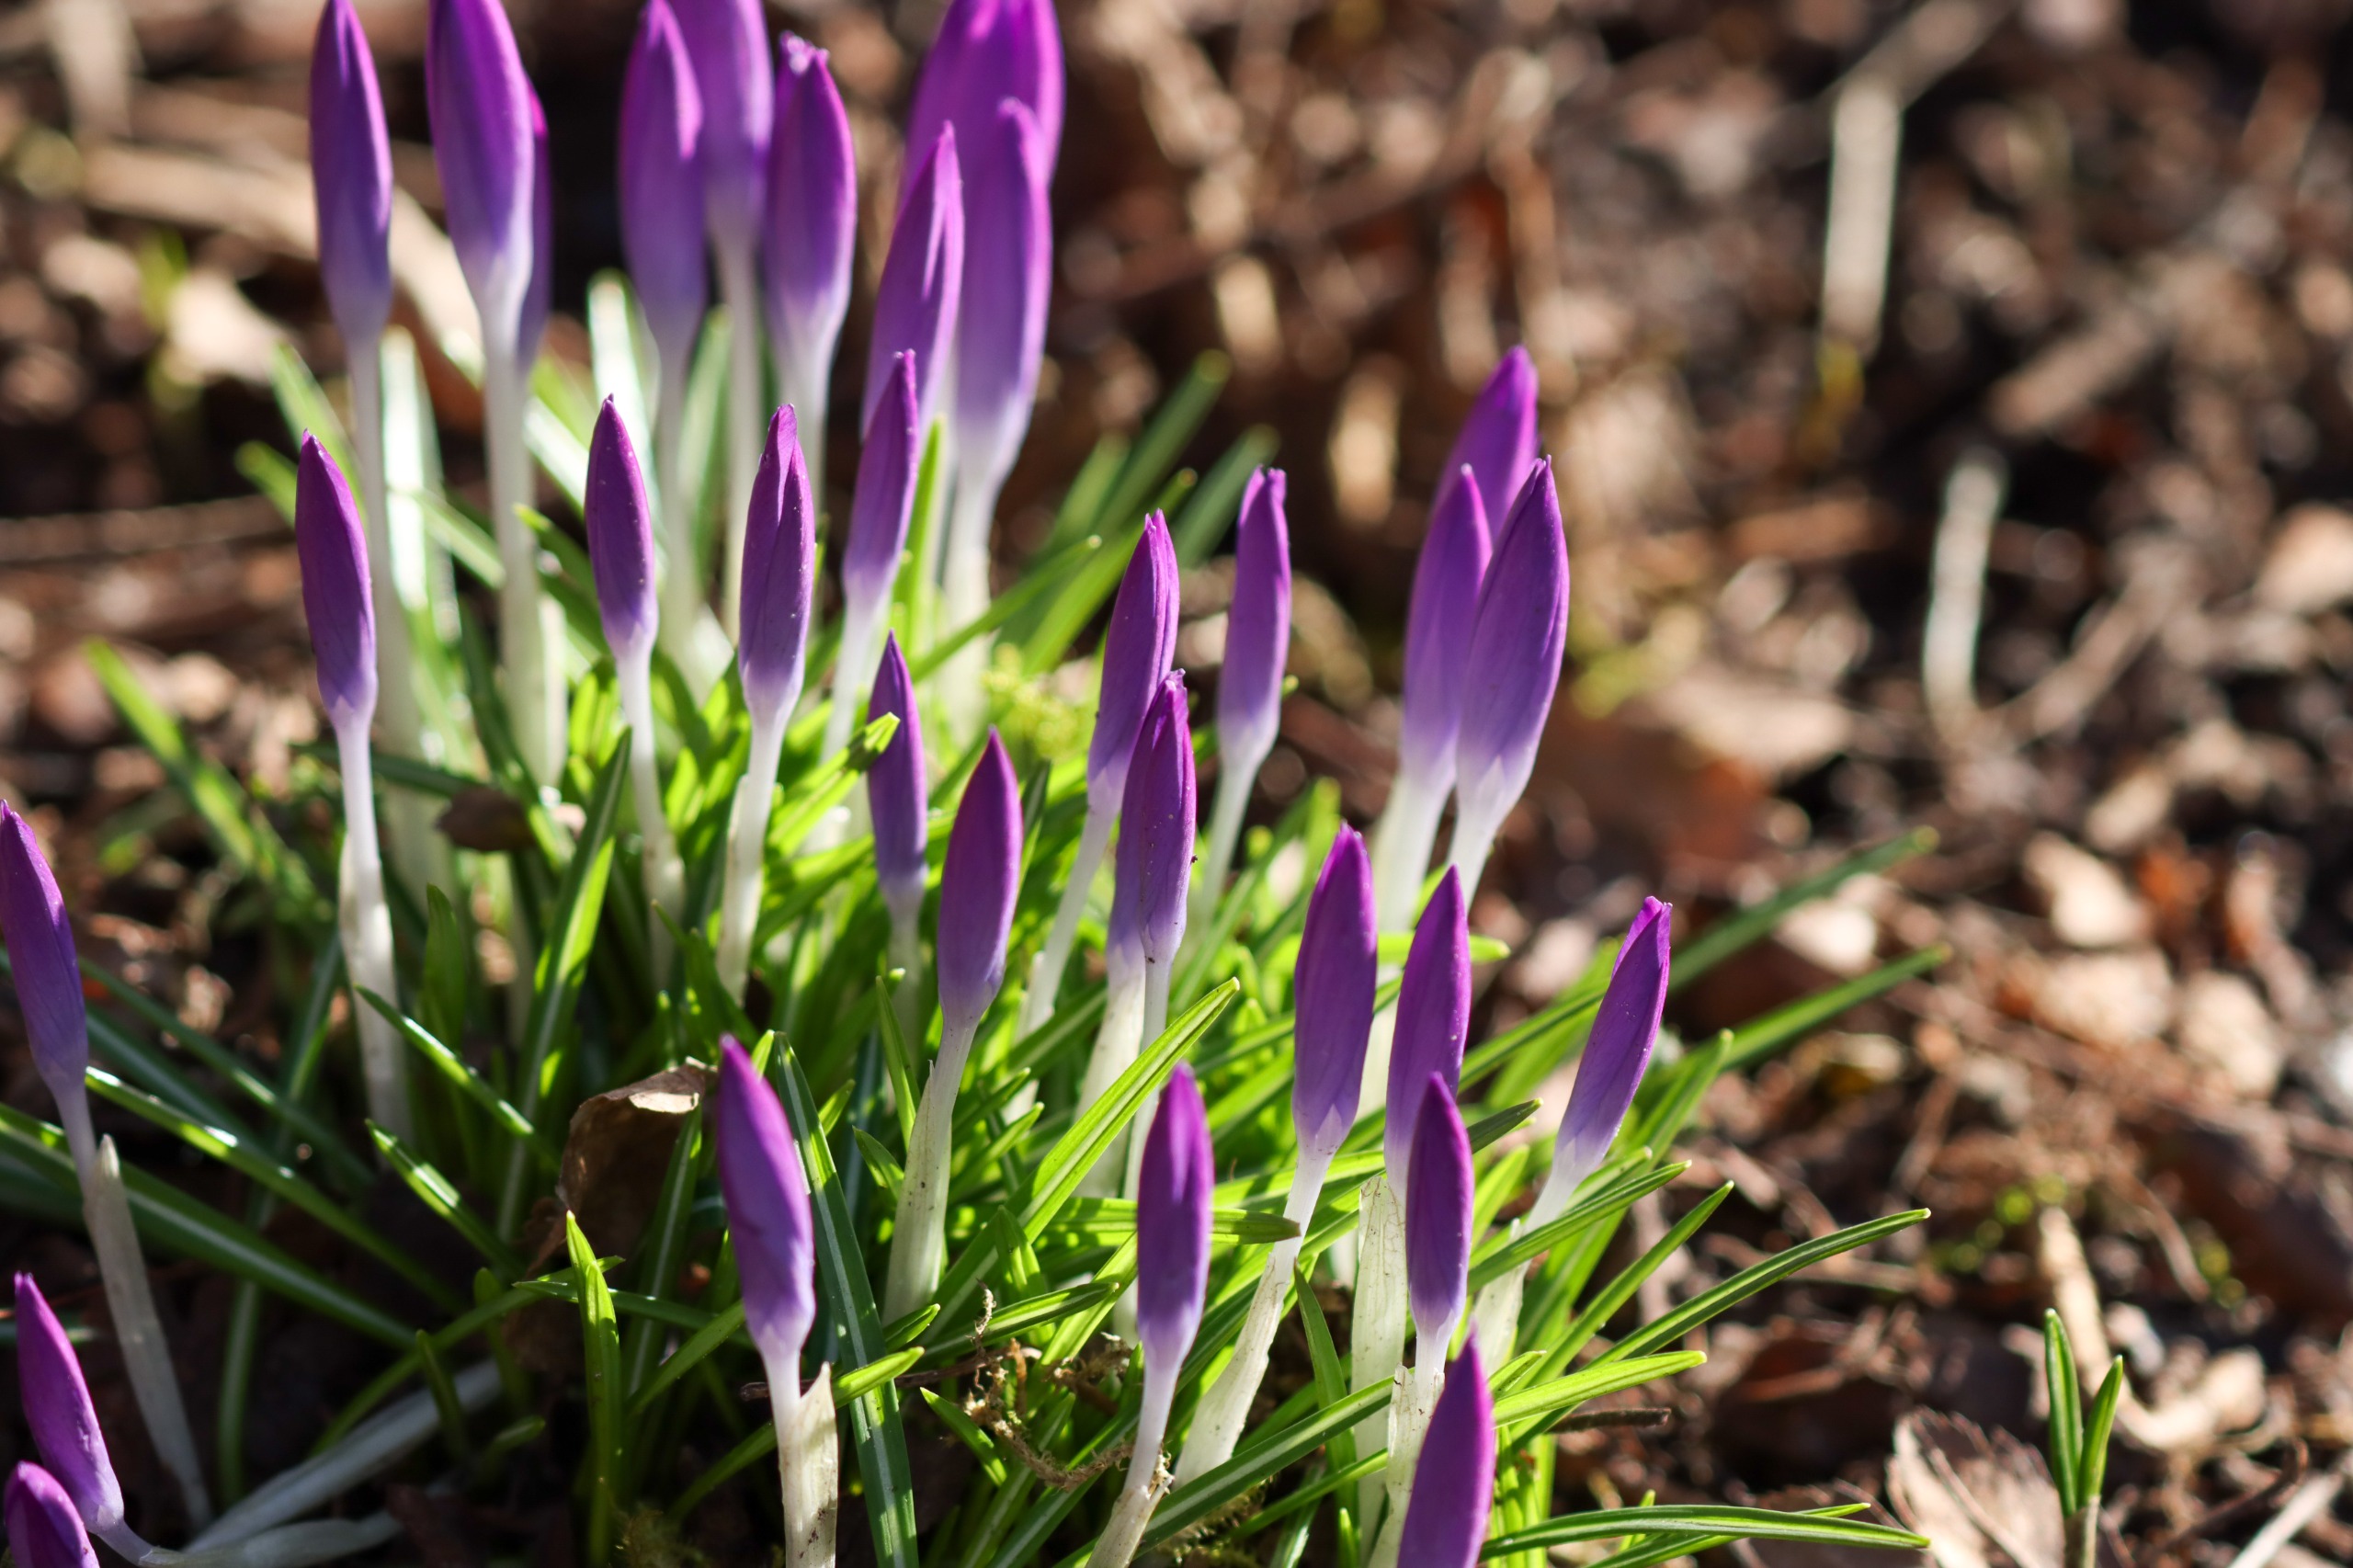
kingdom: Plantae
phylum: Tracheophyta
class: Liliopsida
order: Asparagales
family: Iridaceae
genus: Crocus
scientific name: Crocus vernus
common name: Vår-krokus
